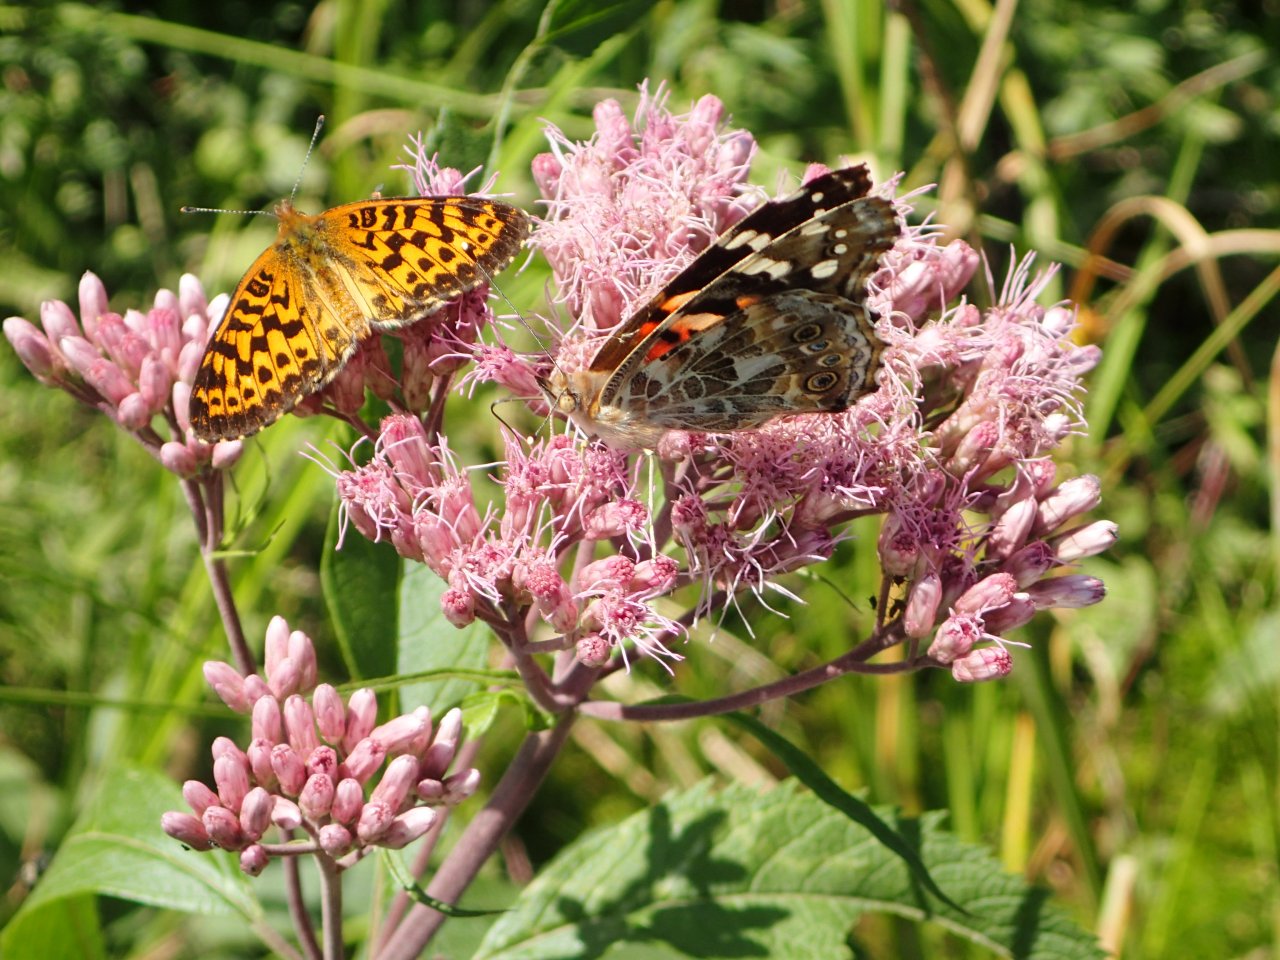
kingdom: Animalia
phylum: Arthropoda
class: Insecta
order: Lepidoptera
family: Nymphalidae
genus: Vanessa
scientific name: Vanessa cardui
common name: Painted Lady
